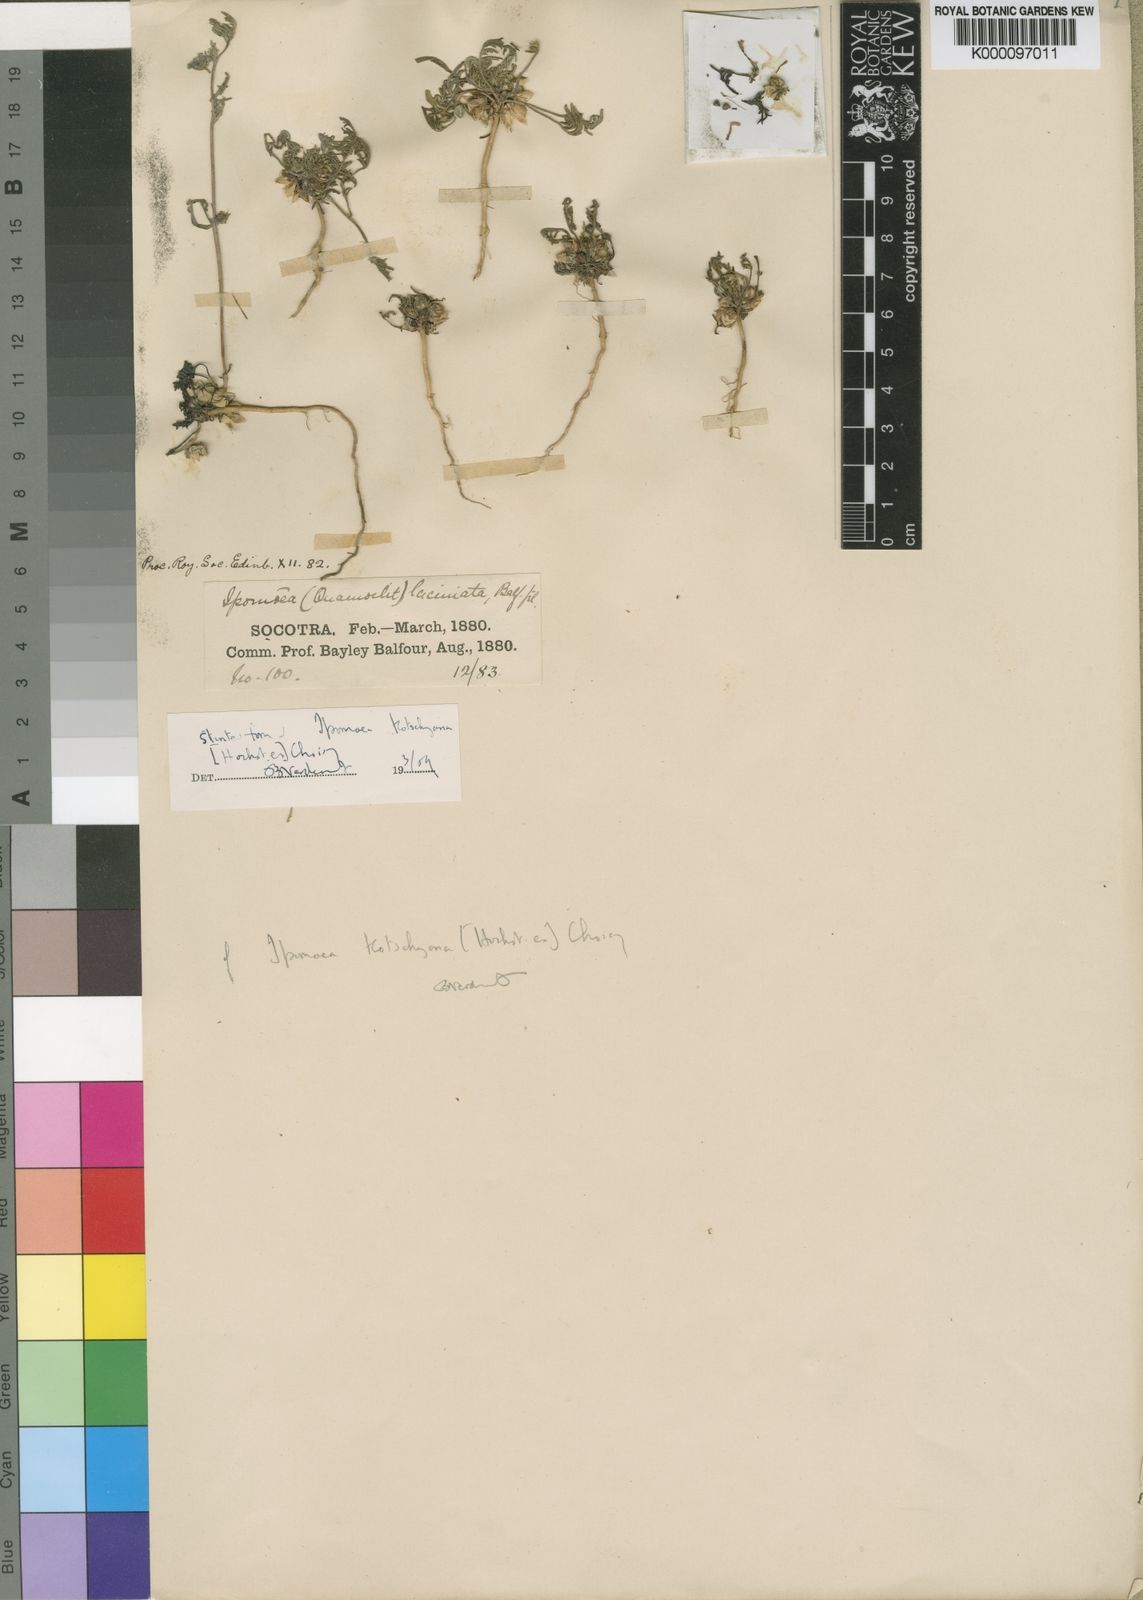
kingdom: Plantae
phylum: Tracheophyta
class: Magnoliopsida
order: Solanales
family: Convolvulaceae
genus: Ipomoea
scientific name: Ipomoea kotschyana
